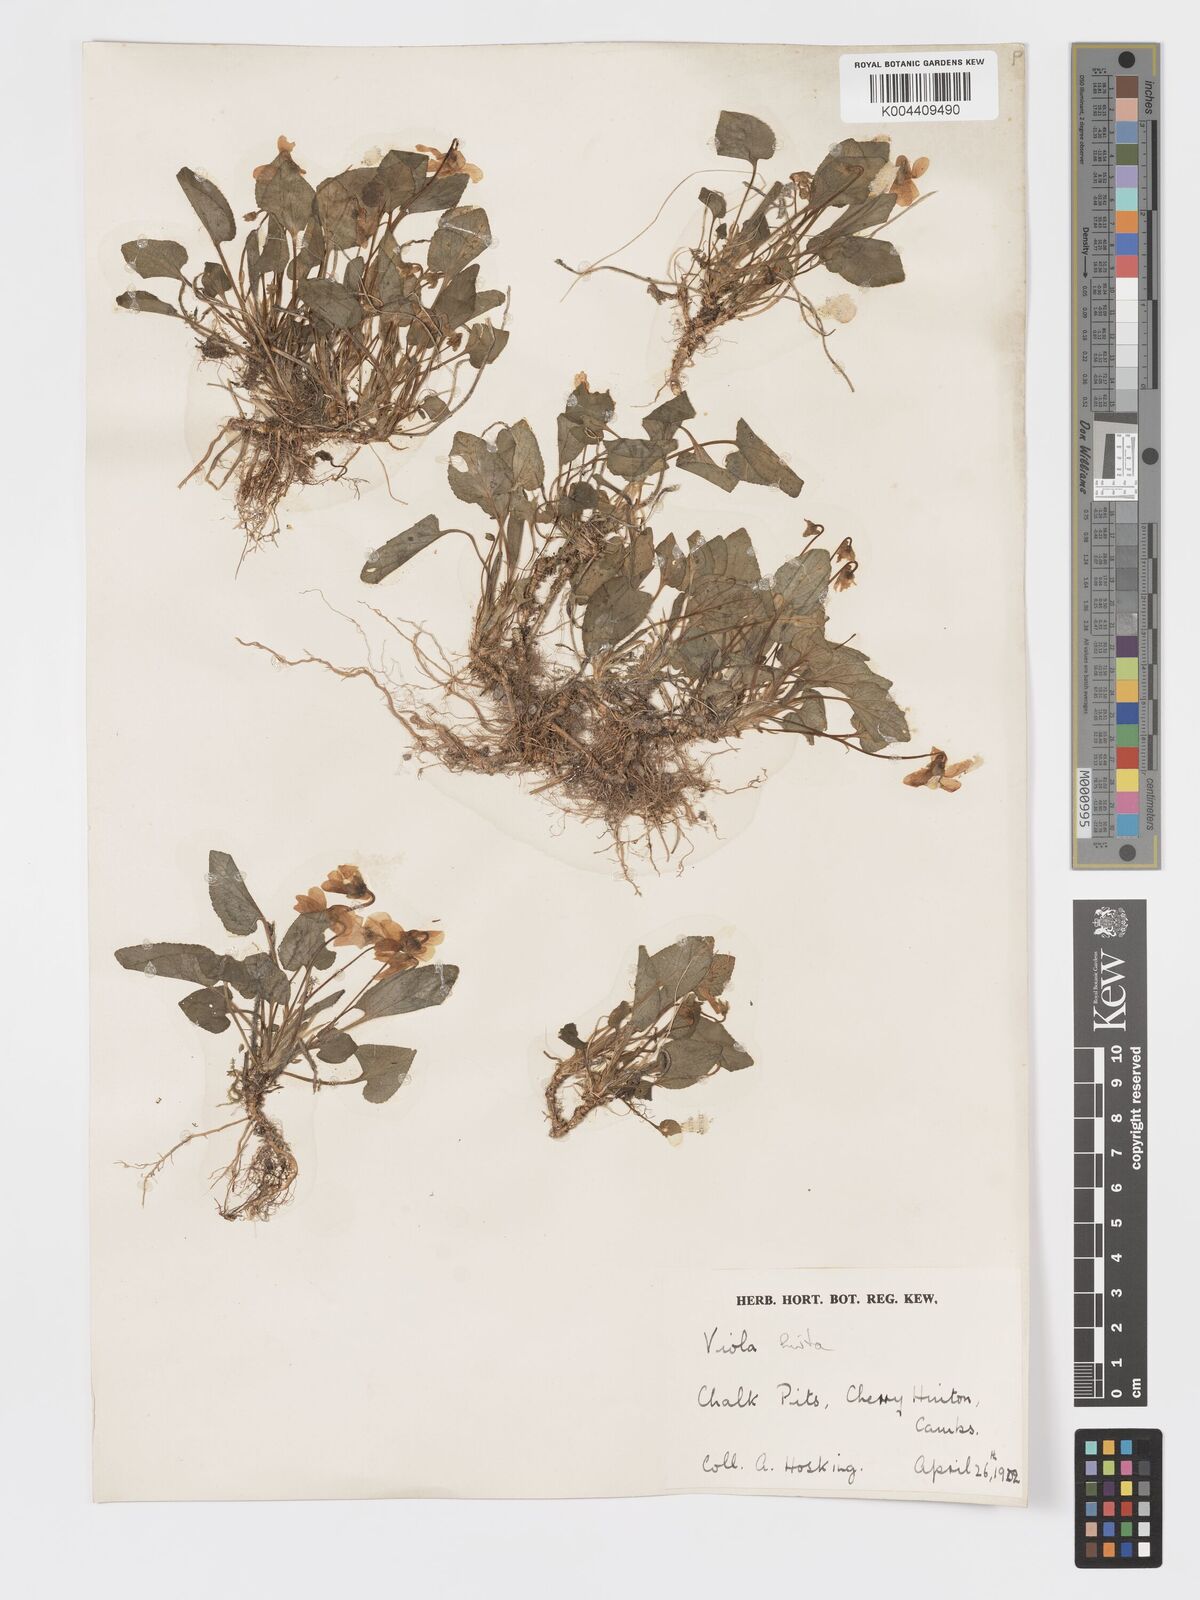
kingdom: Plantae
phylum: Tracheophyta
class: Magnoliopsida
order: Malpighiales
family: Violaceae
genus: Viola
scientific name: Viola
